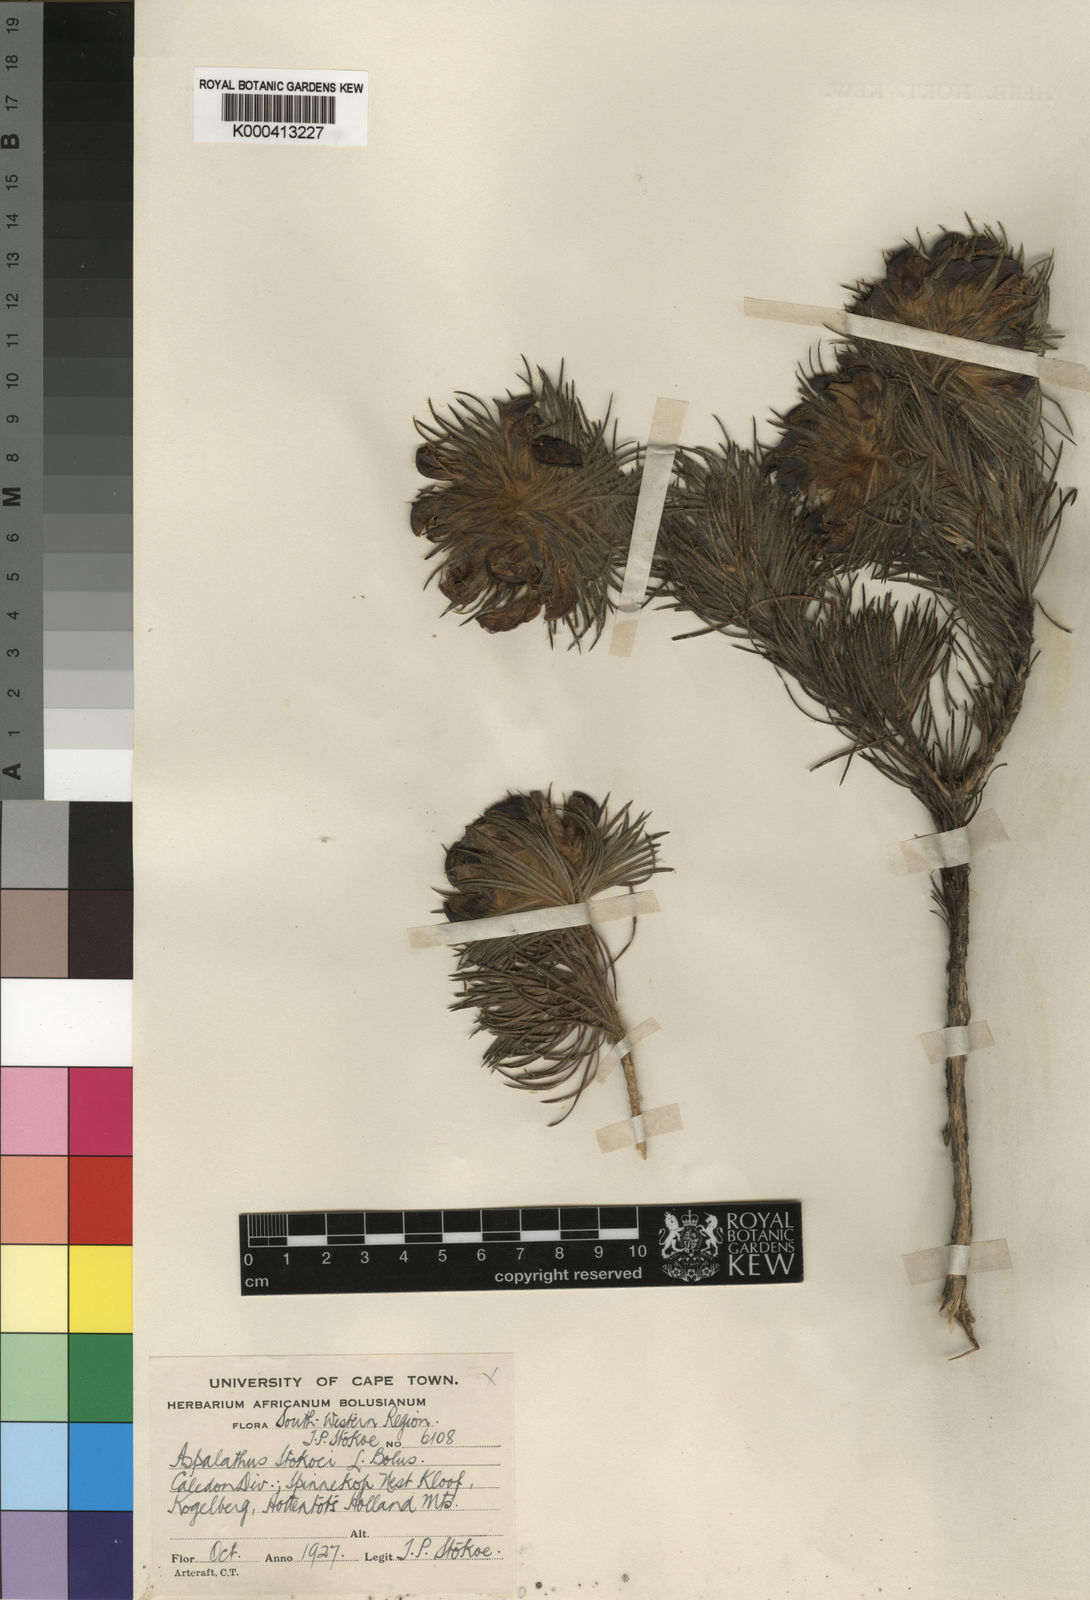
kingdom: Plantae
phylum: Tracheophyta
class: Magnoliopsida
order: Fabales
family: Fabaceae
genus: Aspalathus
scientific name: Aspalathus stokoei
